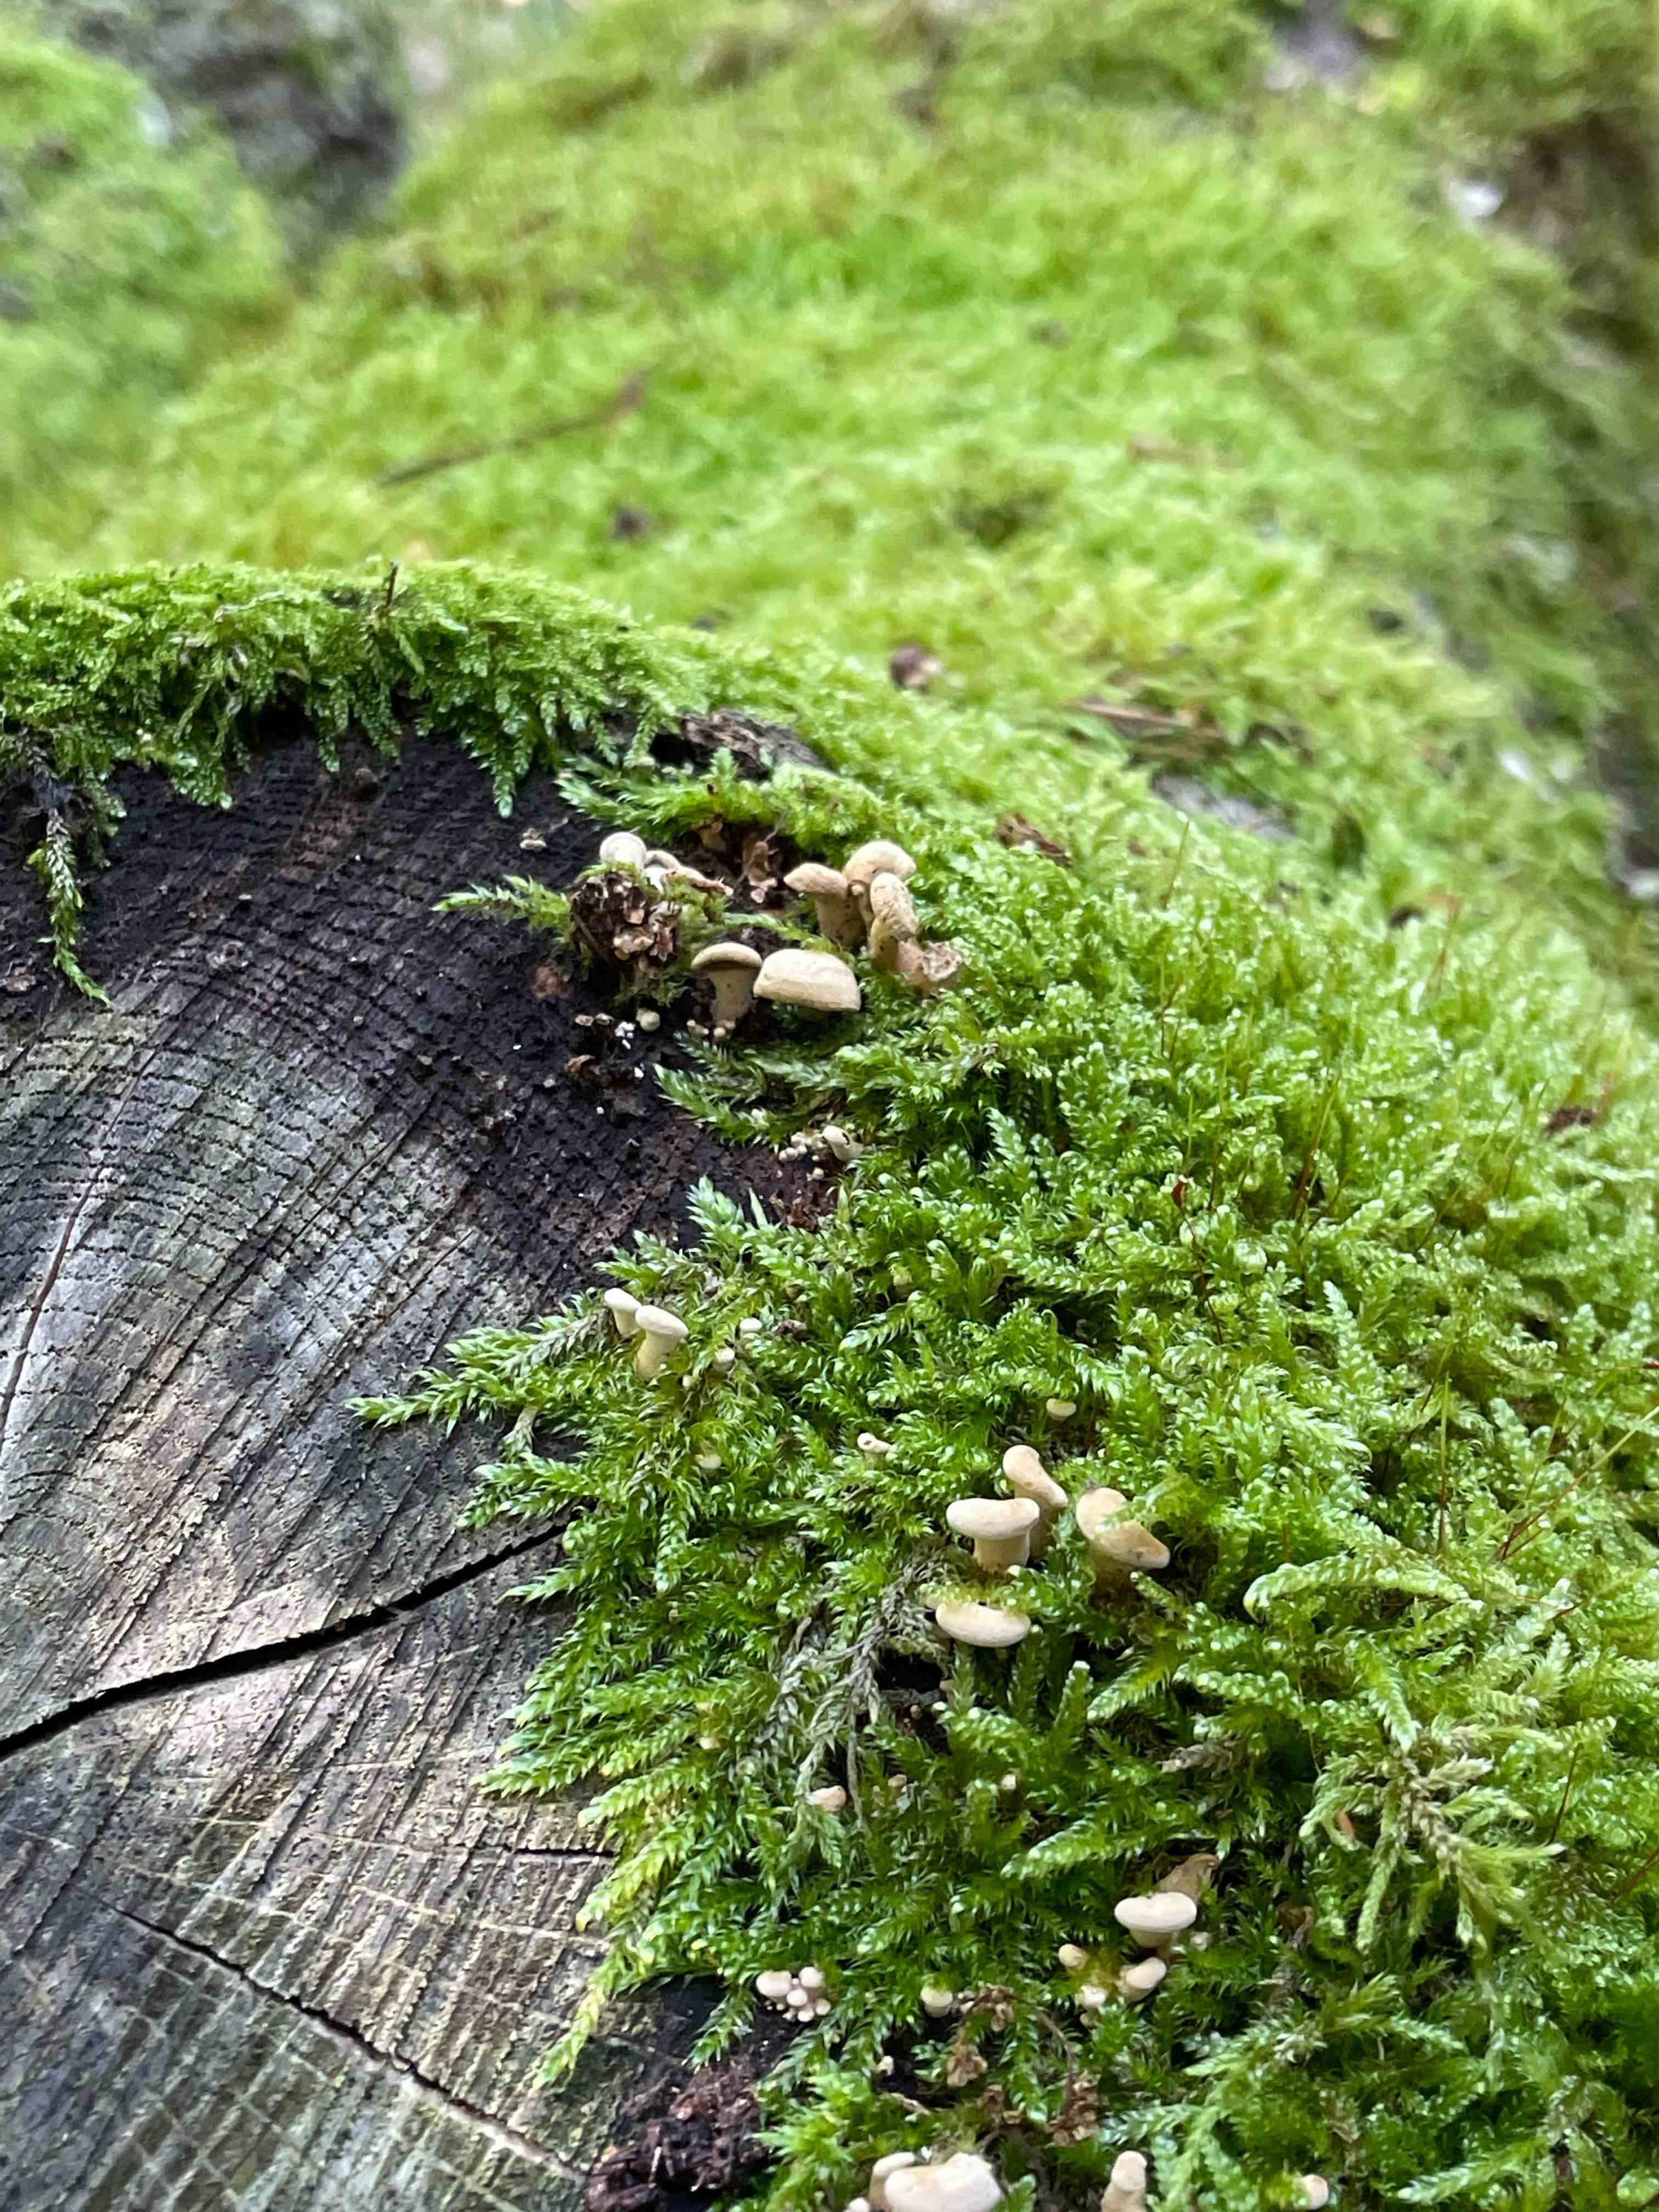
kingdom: Fungi
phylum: Basidiomycota
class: Agaricomycetes
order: Agaricales
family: Mycenaceae
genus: Panellus
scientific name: Panellus stipticus
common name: kliddet epaulethat
